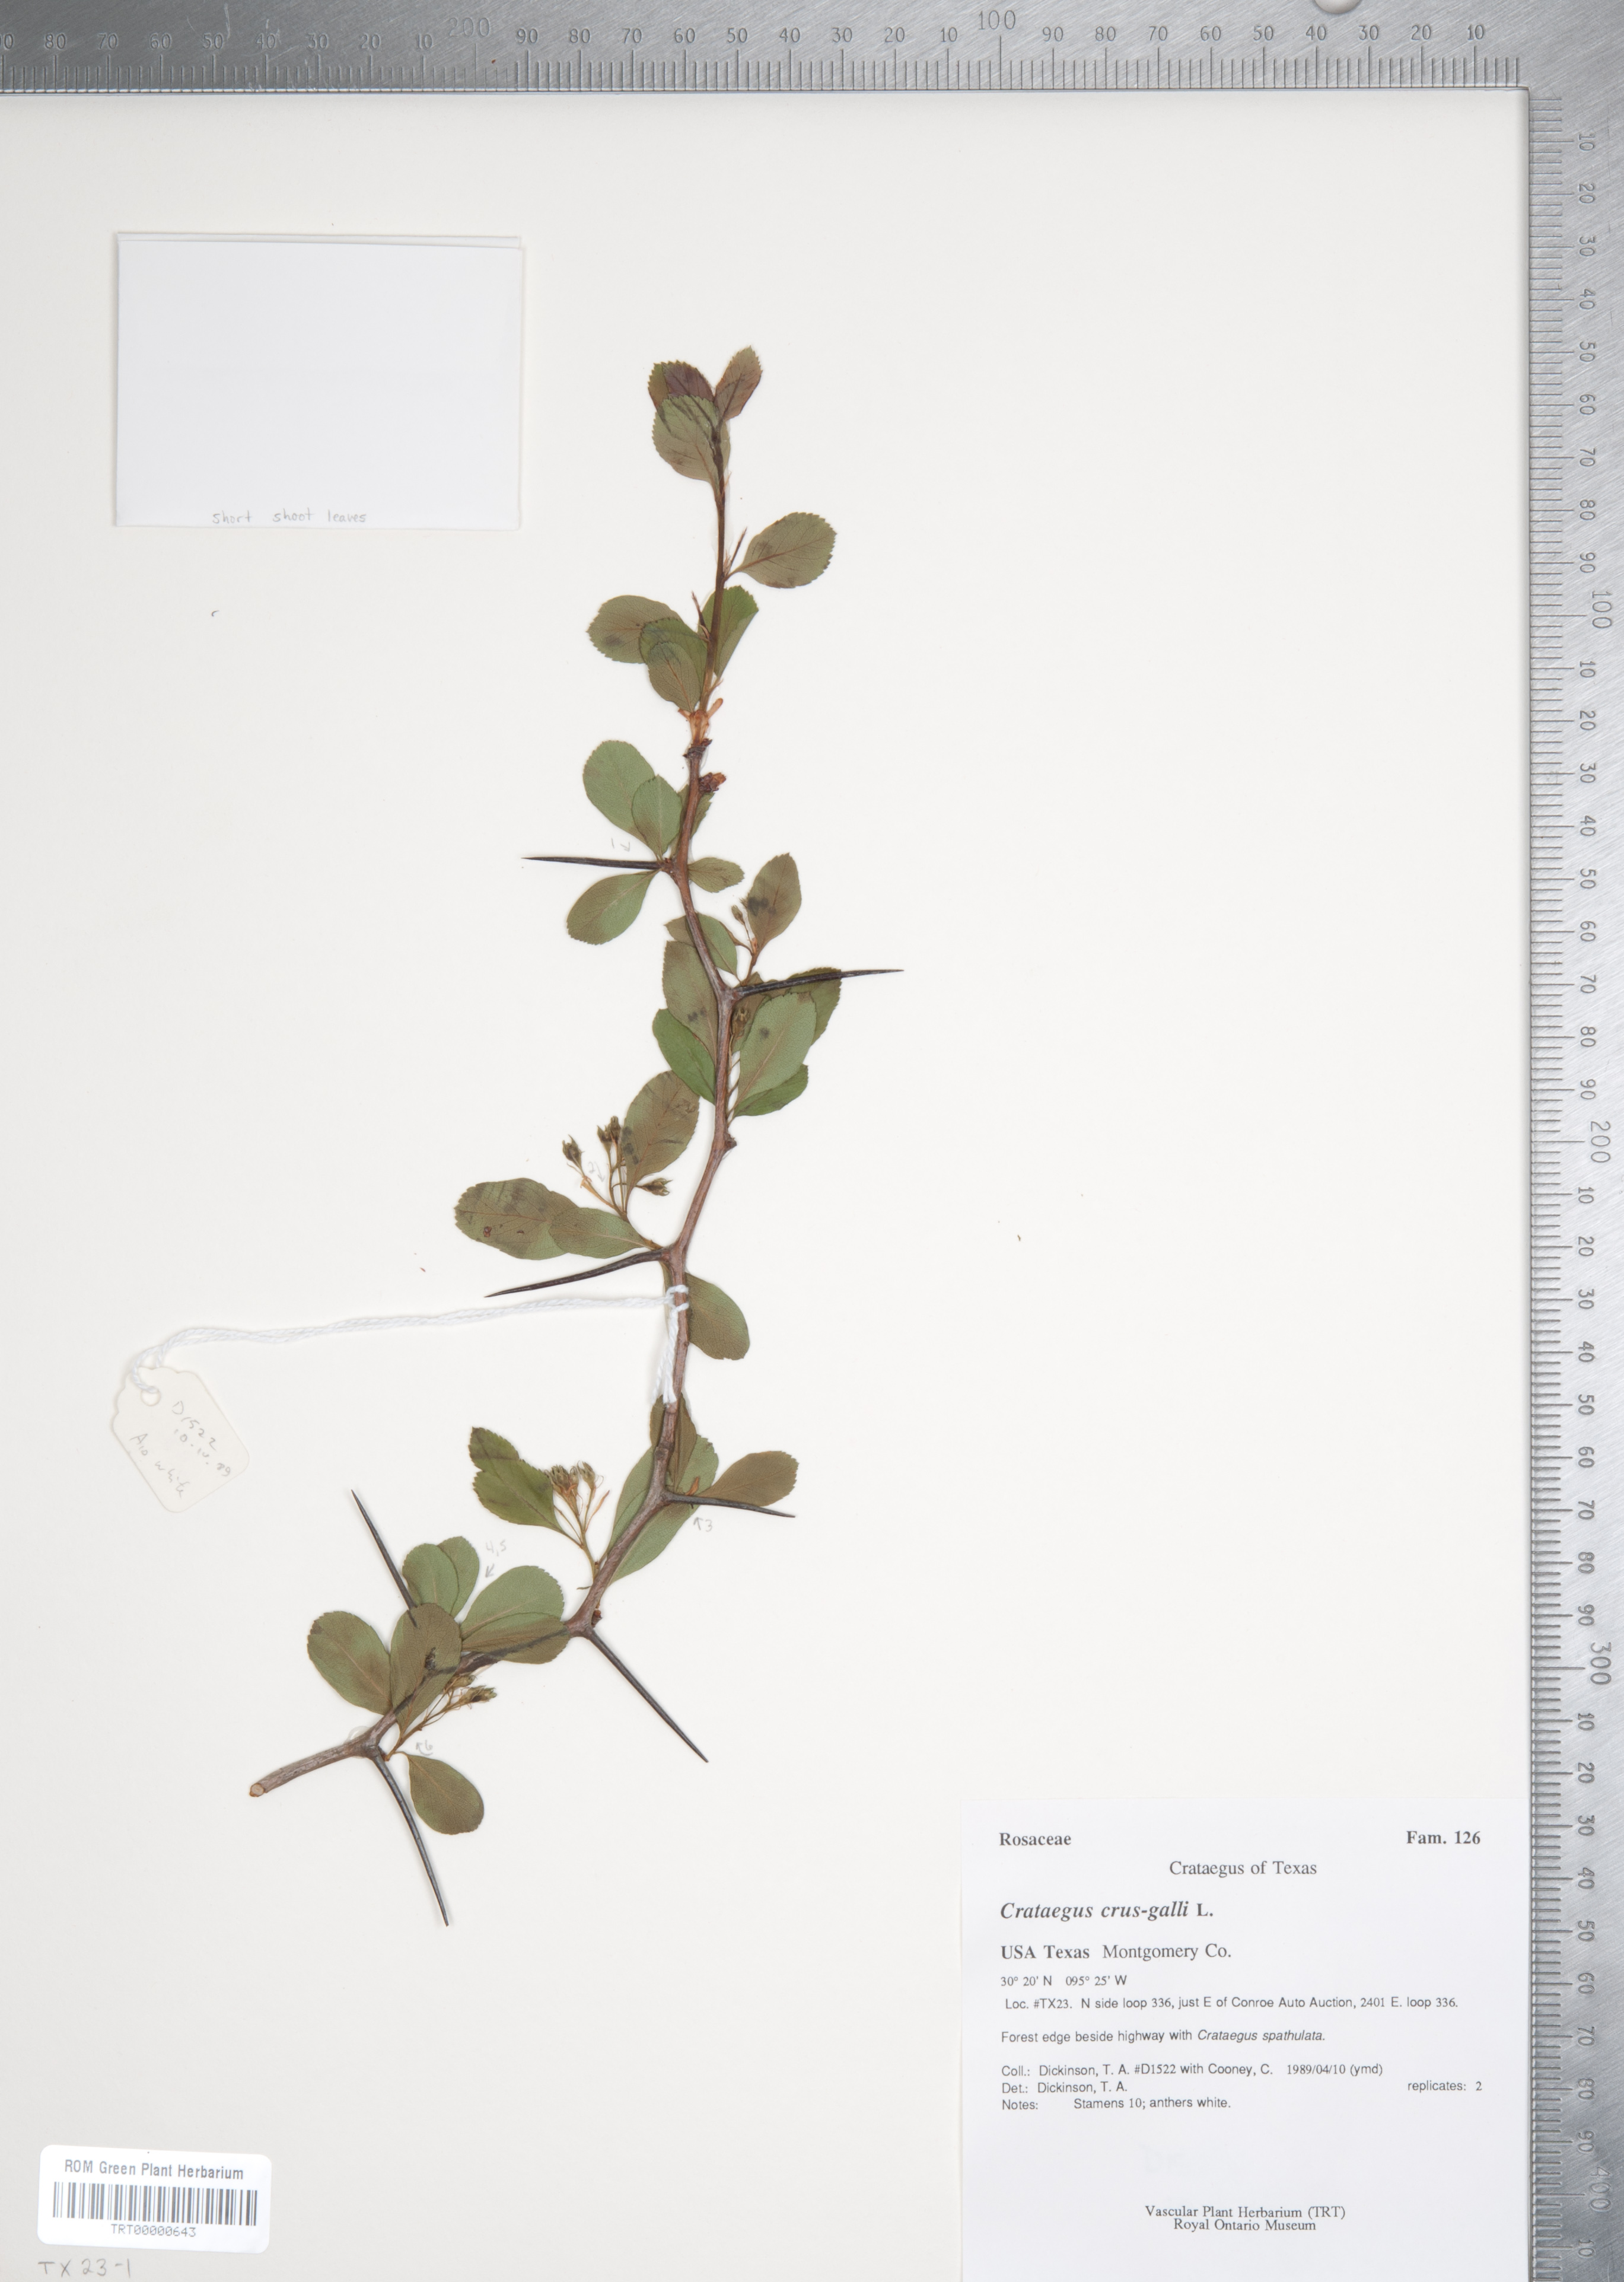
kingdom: Plantae
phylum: Tracheophyta
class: Magnoliopsida
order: Rosales
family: Rosaceae
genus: Crataegus
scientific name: Crataegus crus-galli
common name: Cockspurthorn
